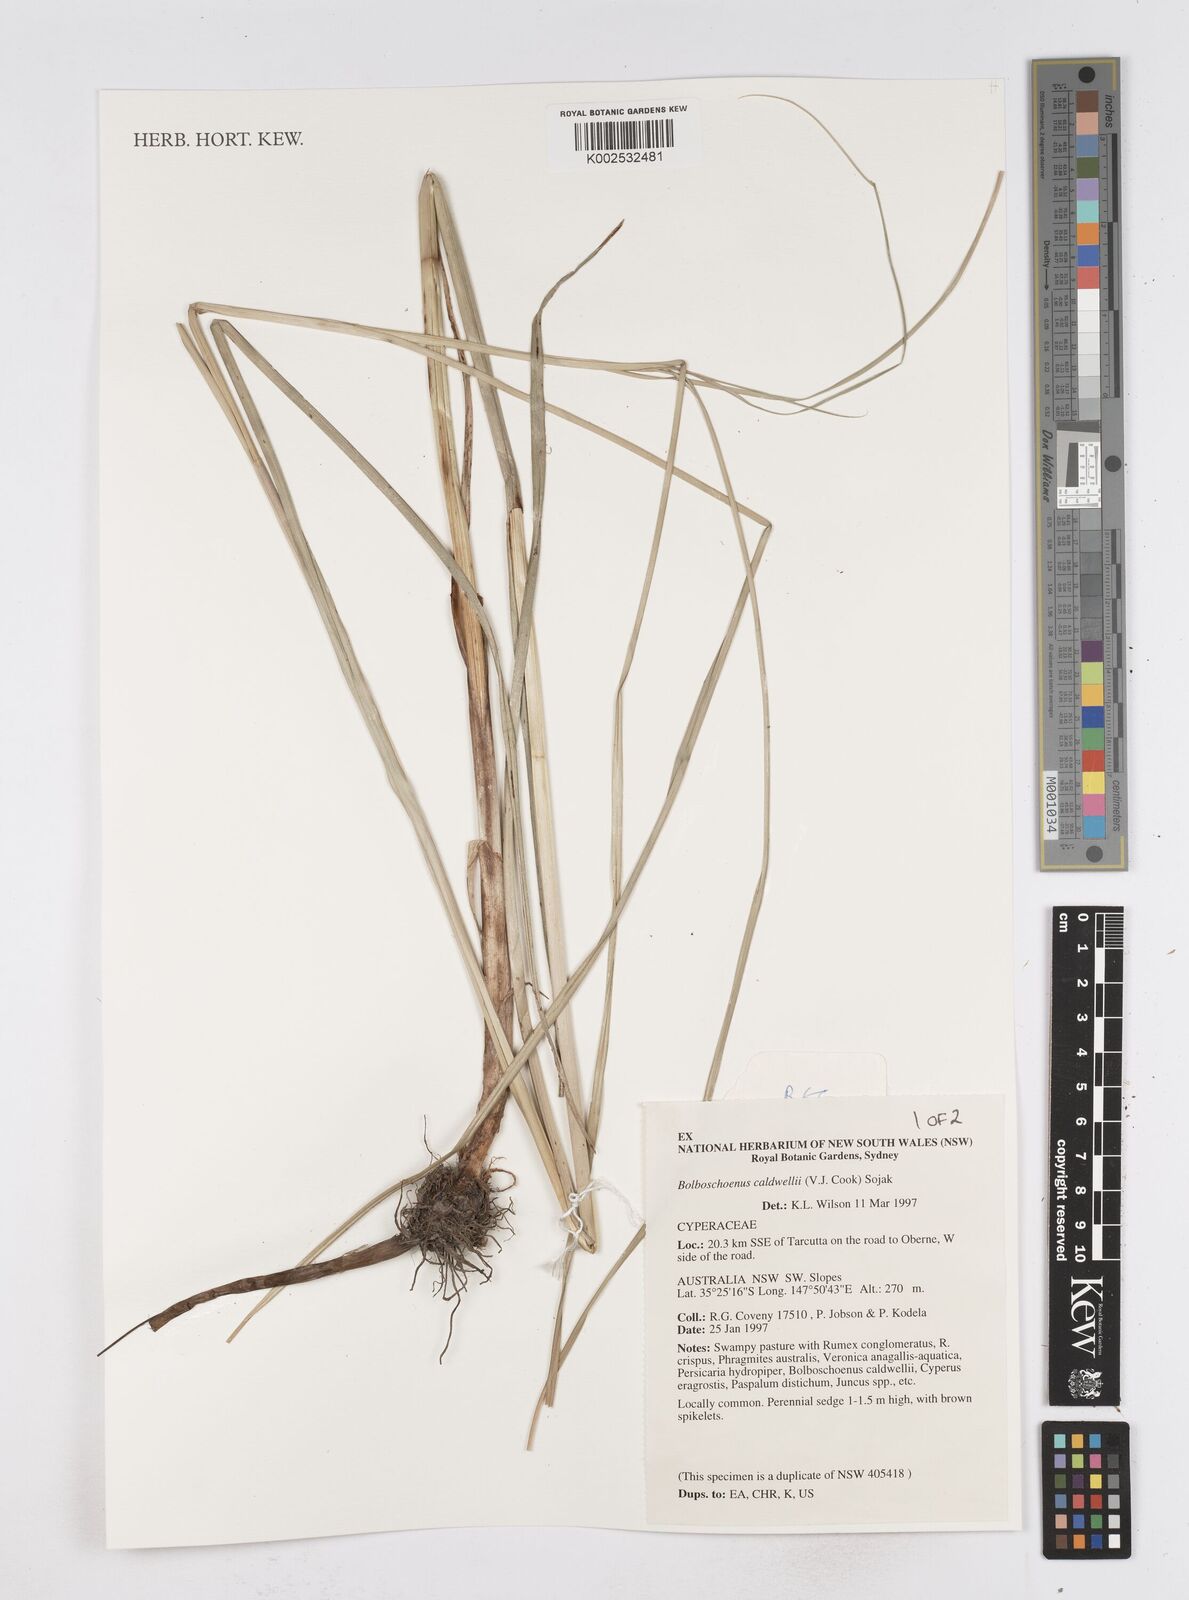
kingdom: Plantae
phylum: Tracheophyta
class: Liliopsida
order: Poales
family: Cyperaceae
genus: Bolboschoenus
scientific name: Bolboschoenus caldwellii
